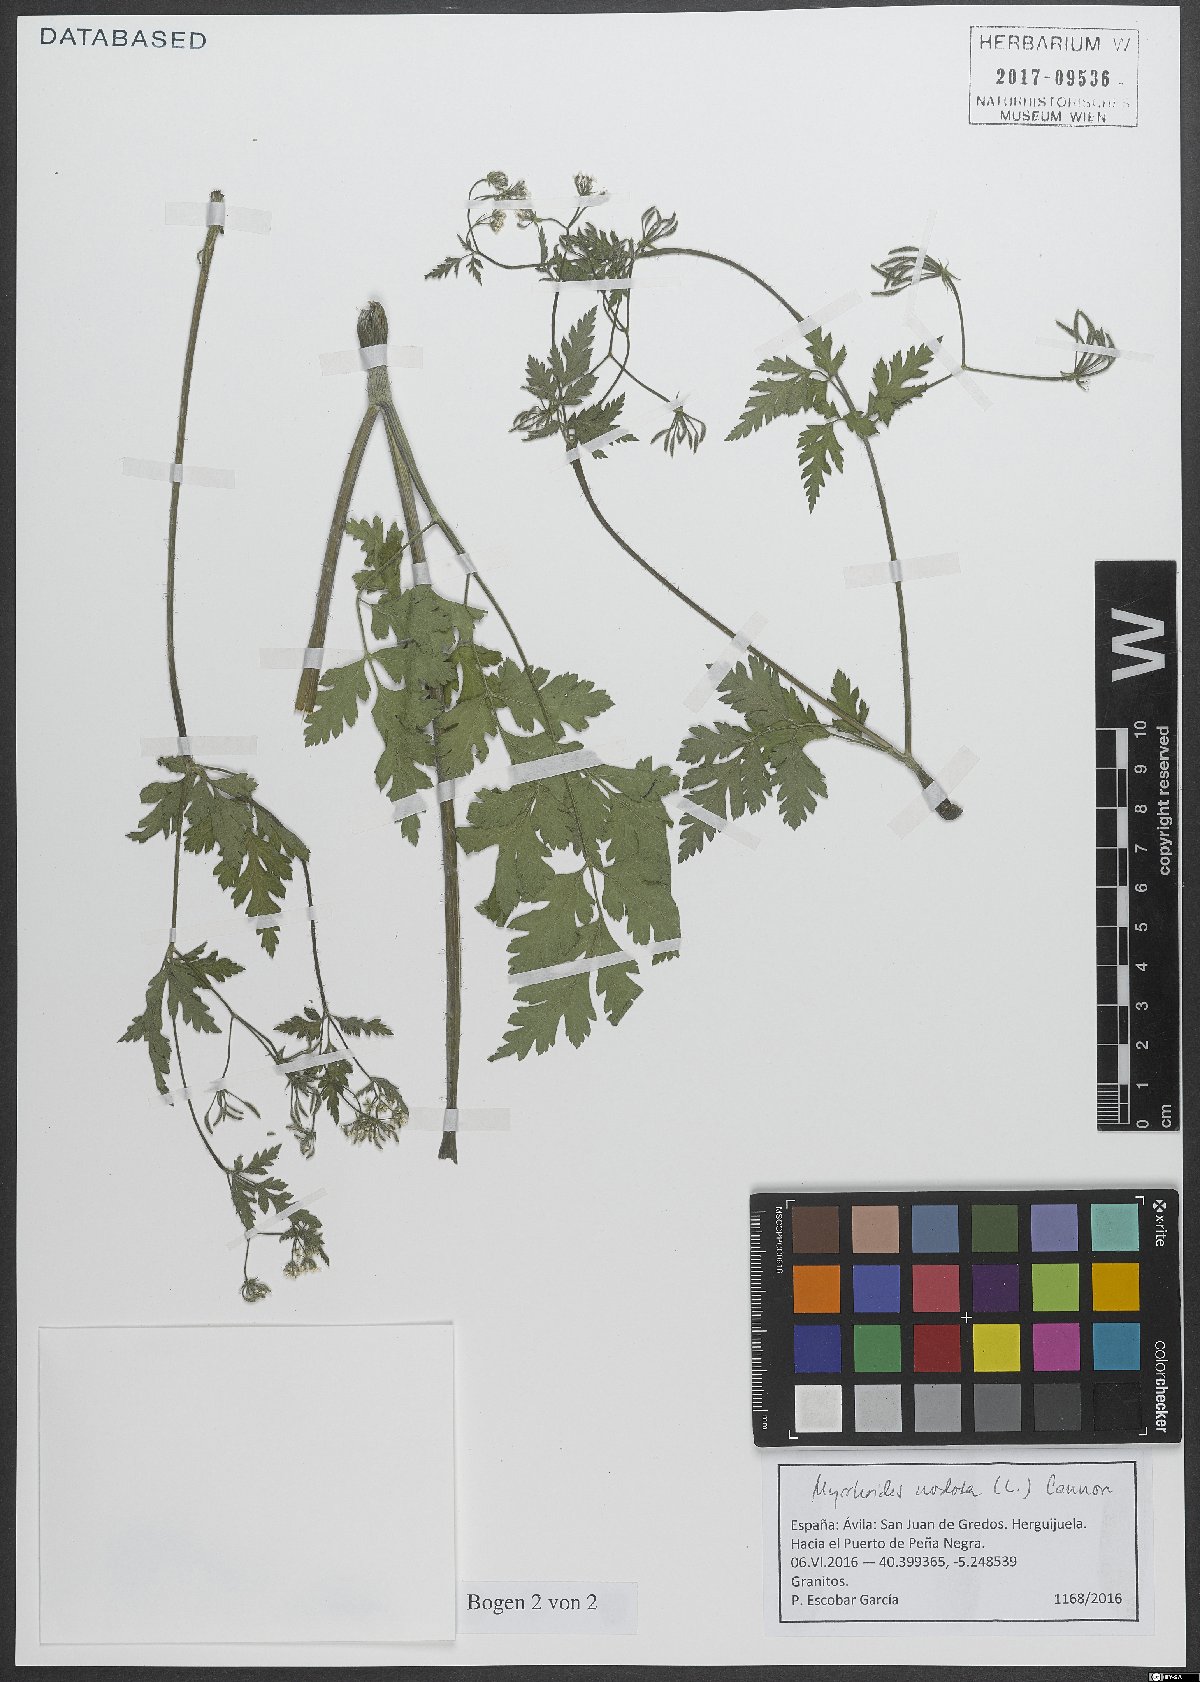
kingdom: Plantae
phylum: Tracheophyta
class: Magnoliopsida
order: Apiales
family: Apiaceae
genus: Chaerophyllum
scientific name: Chaerophyllum nodosum
